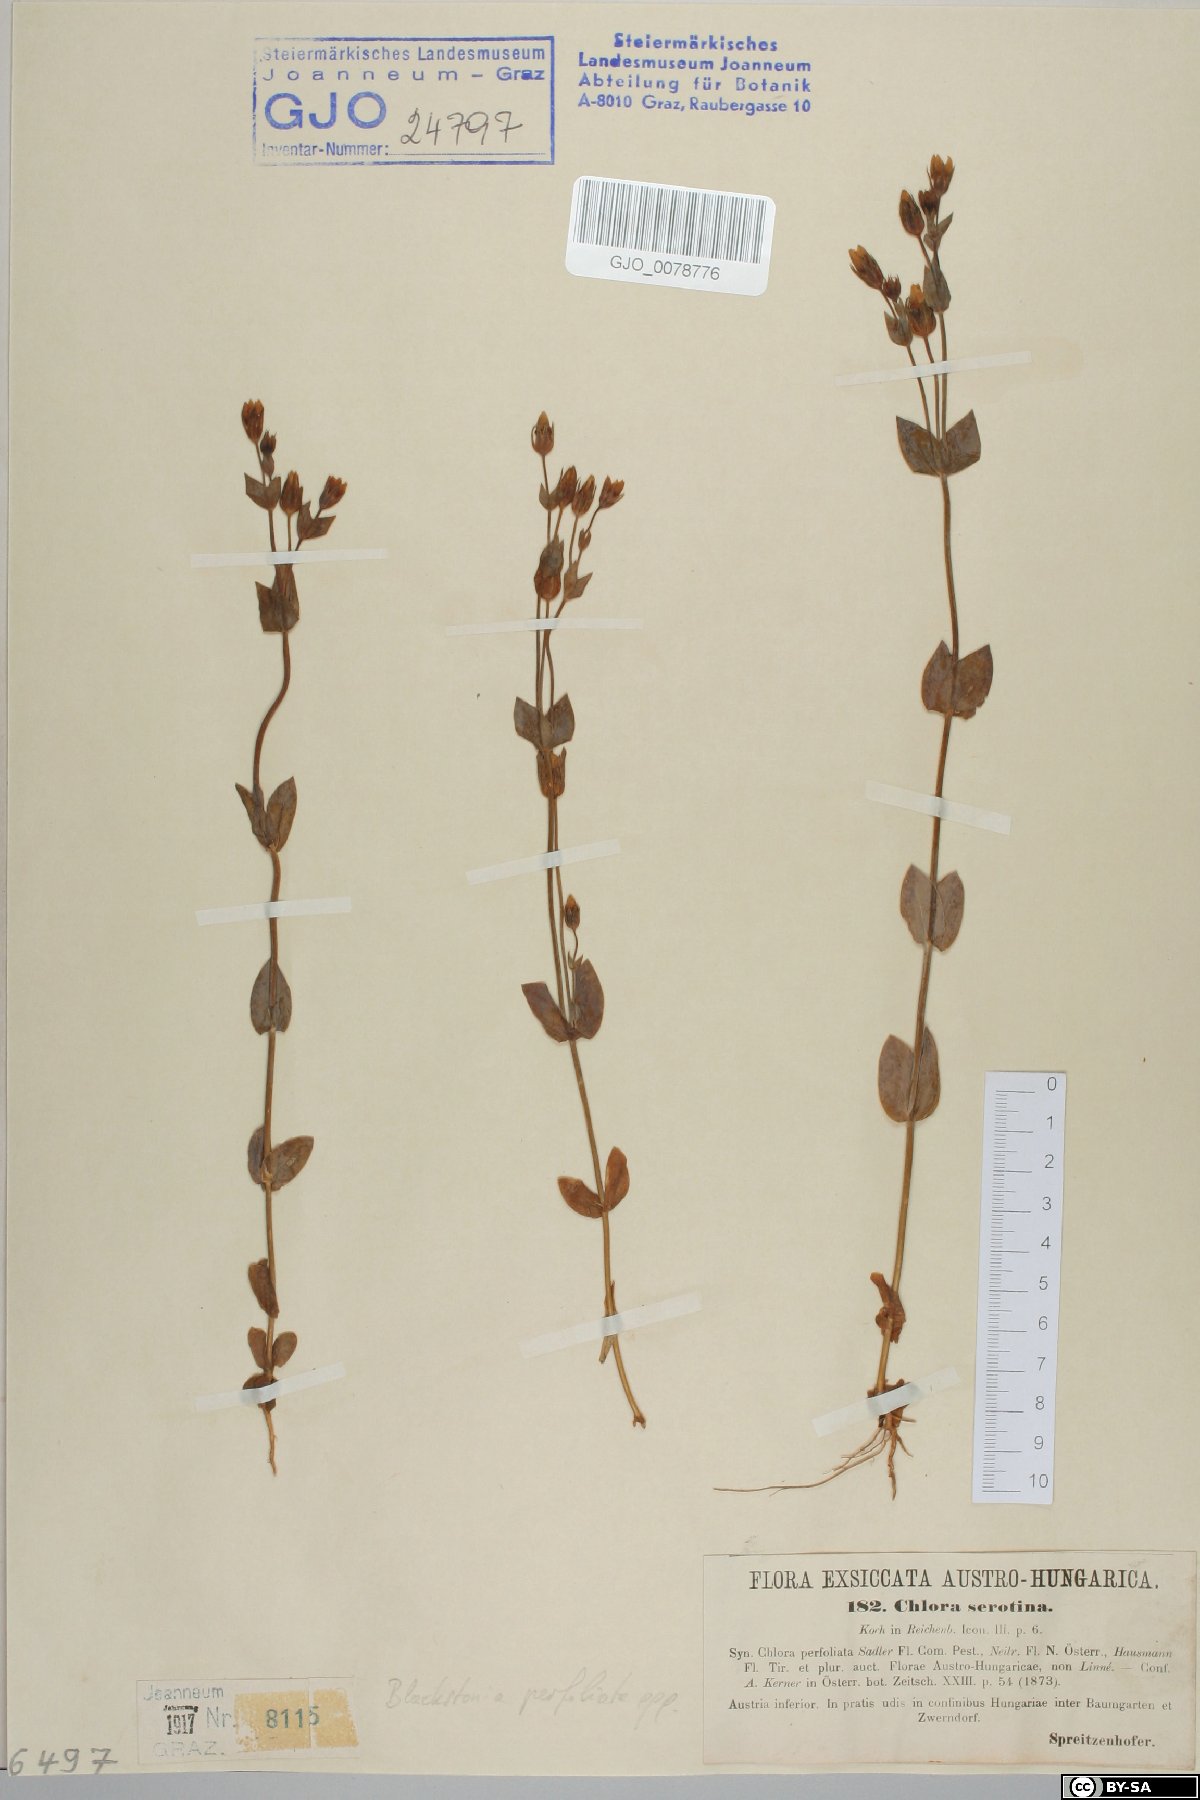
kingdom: Plantae
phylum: Tracheophyta
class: Magnoliopsida
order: Gentianales
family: Gentianaceae
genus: Blackstonia
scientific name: Blackstonia acuminata
